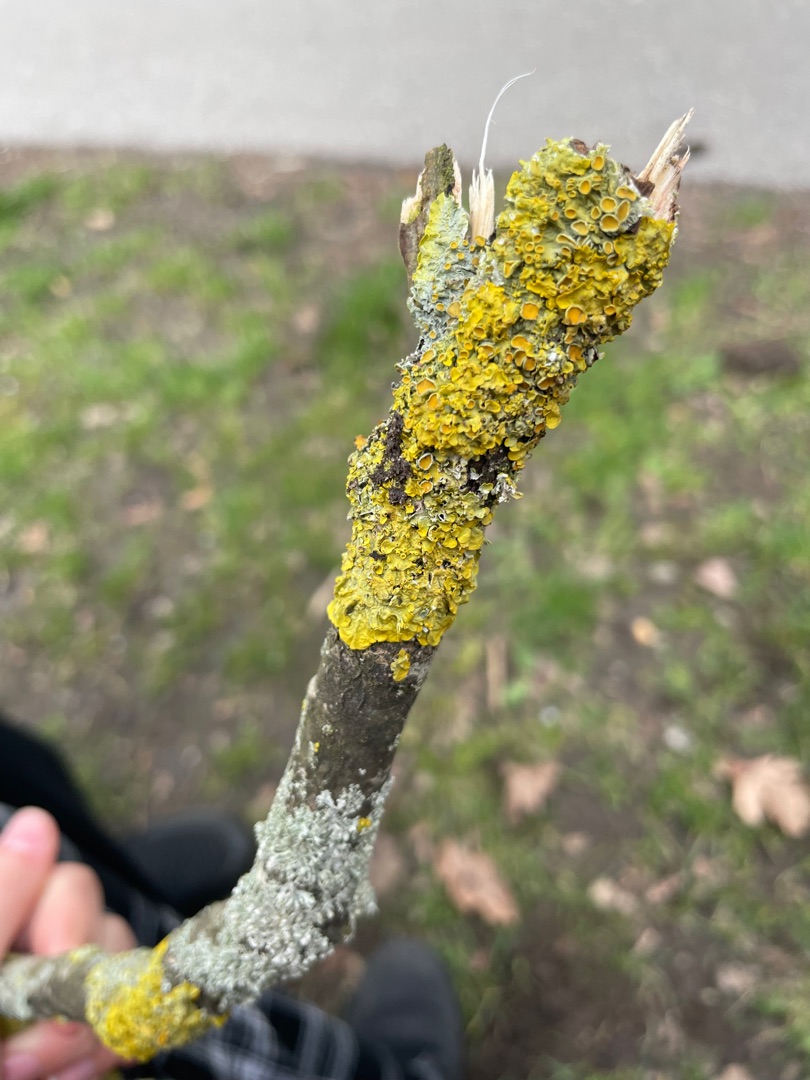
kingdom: Fungi
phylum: Ascomycota
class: Lecanoromycetes
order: Teloschistales
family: Teloschistaceae
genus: Xanthoria
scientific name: Xanthoria parietina
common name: Almindelig væggelav
